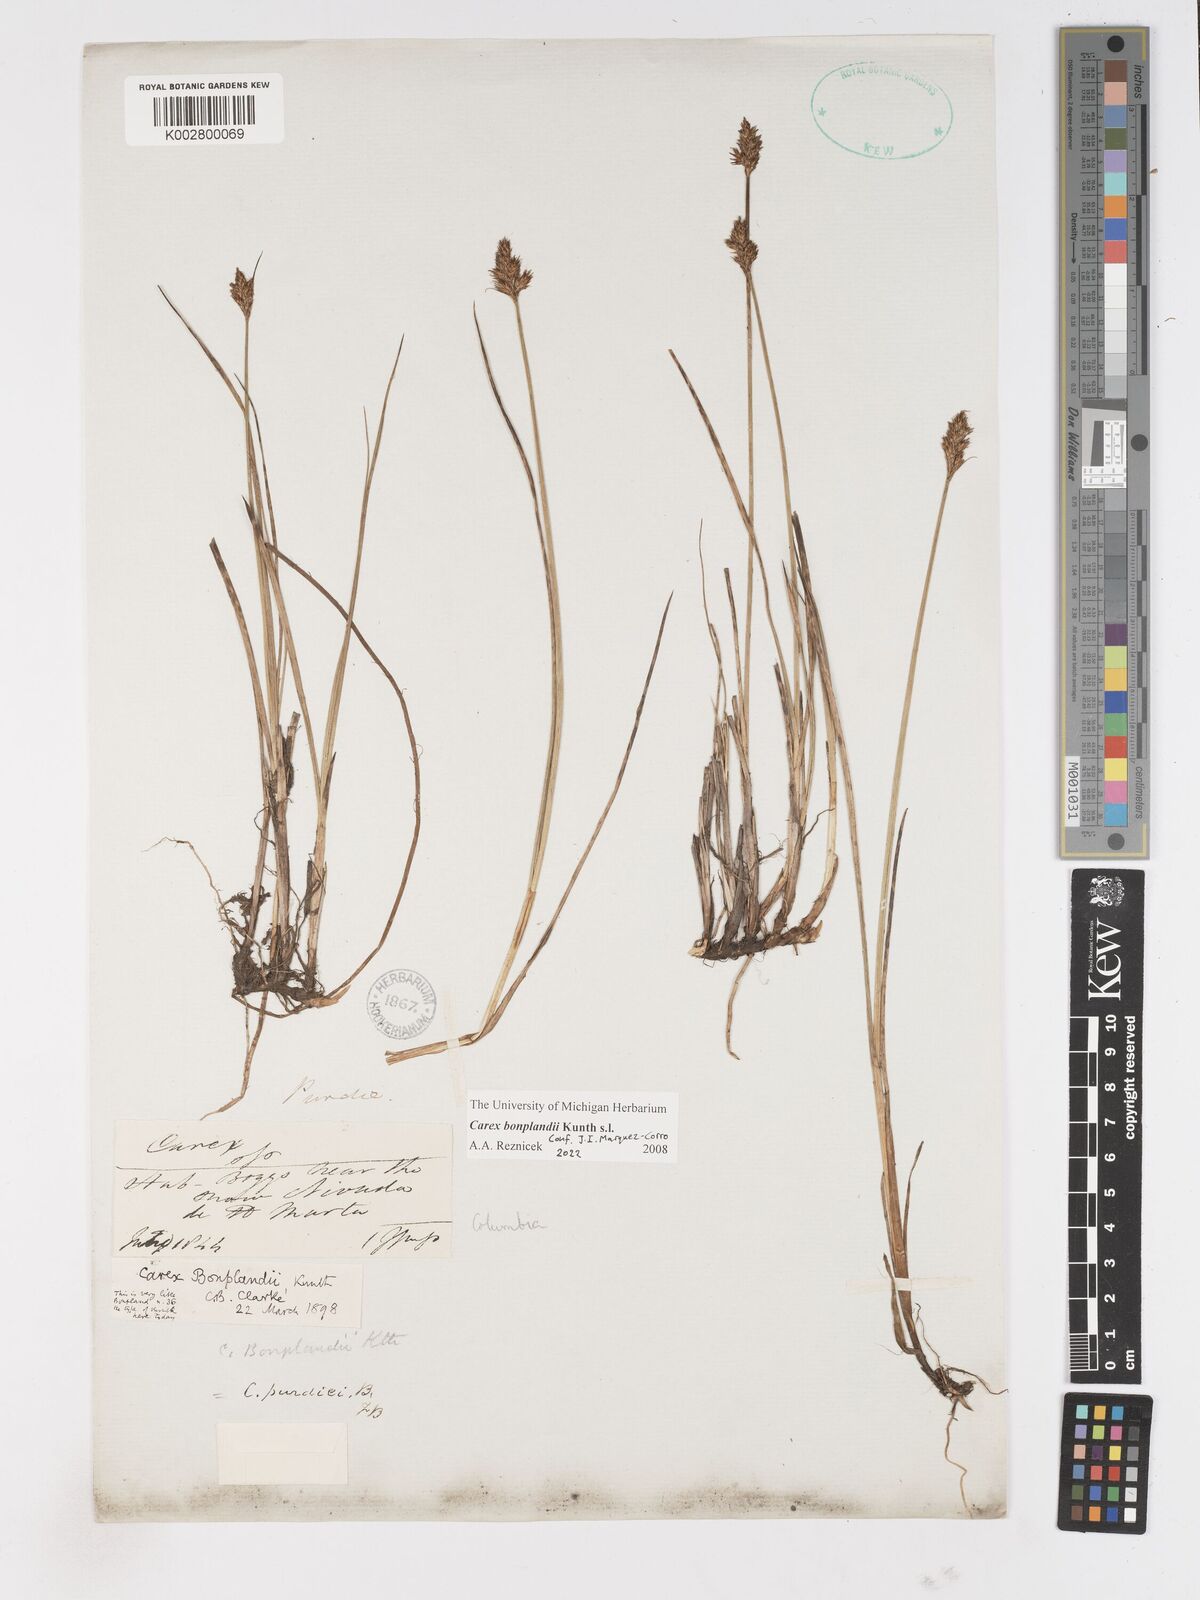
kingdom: Plantae
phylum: Tracheophyta
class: Liliopsida
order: Poales
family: Cyperaceae
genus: Carex
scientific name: Carex bonplandii
